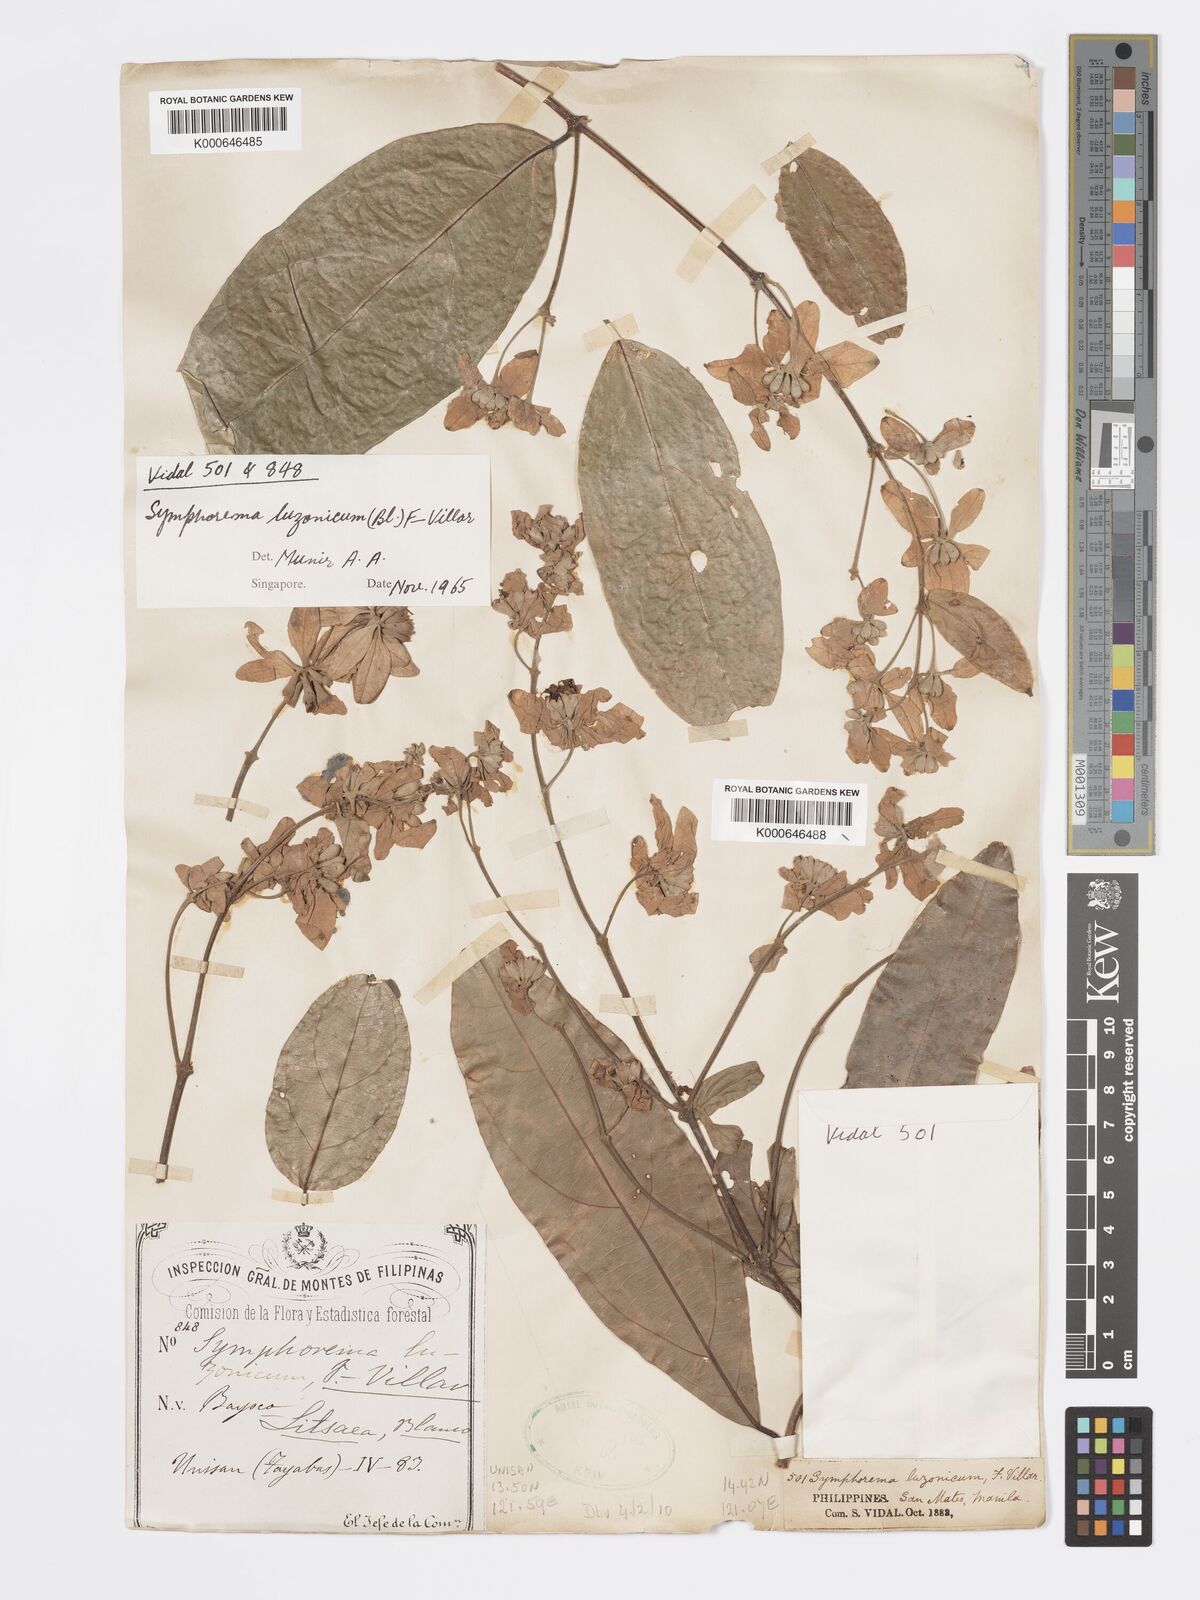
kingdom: Plantae
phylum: Tracheophyta
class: Magnoliopsida
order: Lamiales
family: Lamiaceae
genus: Symphorema
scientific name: Symphorema luzonicum
